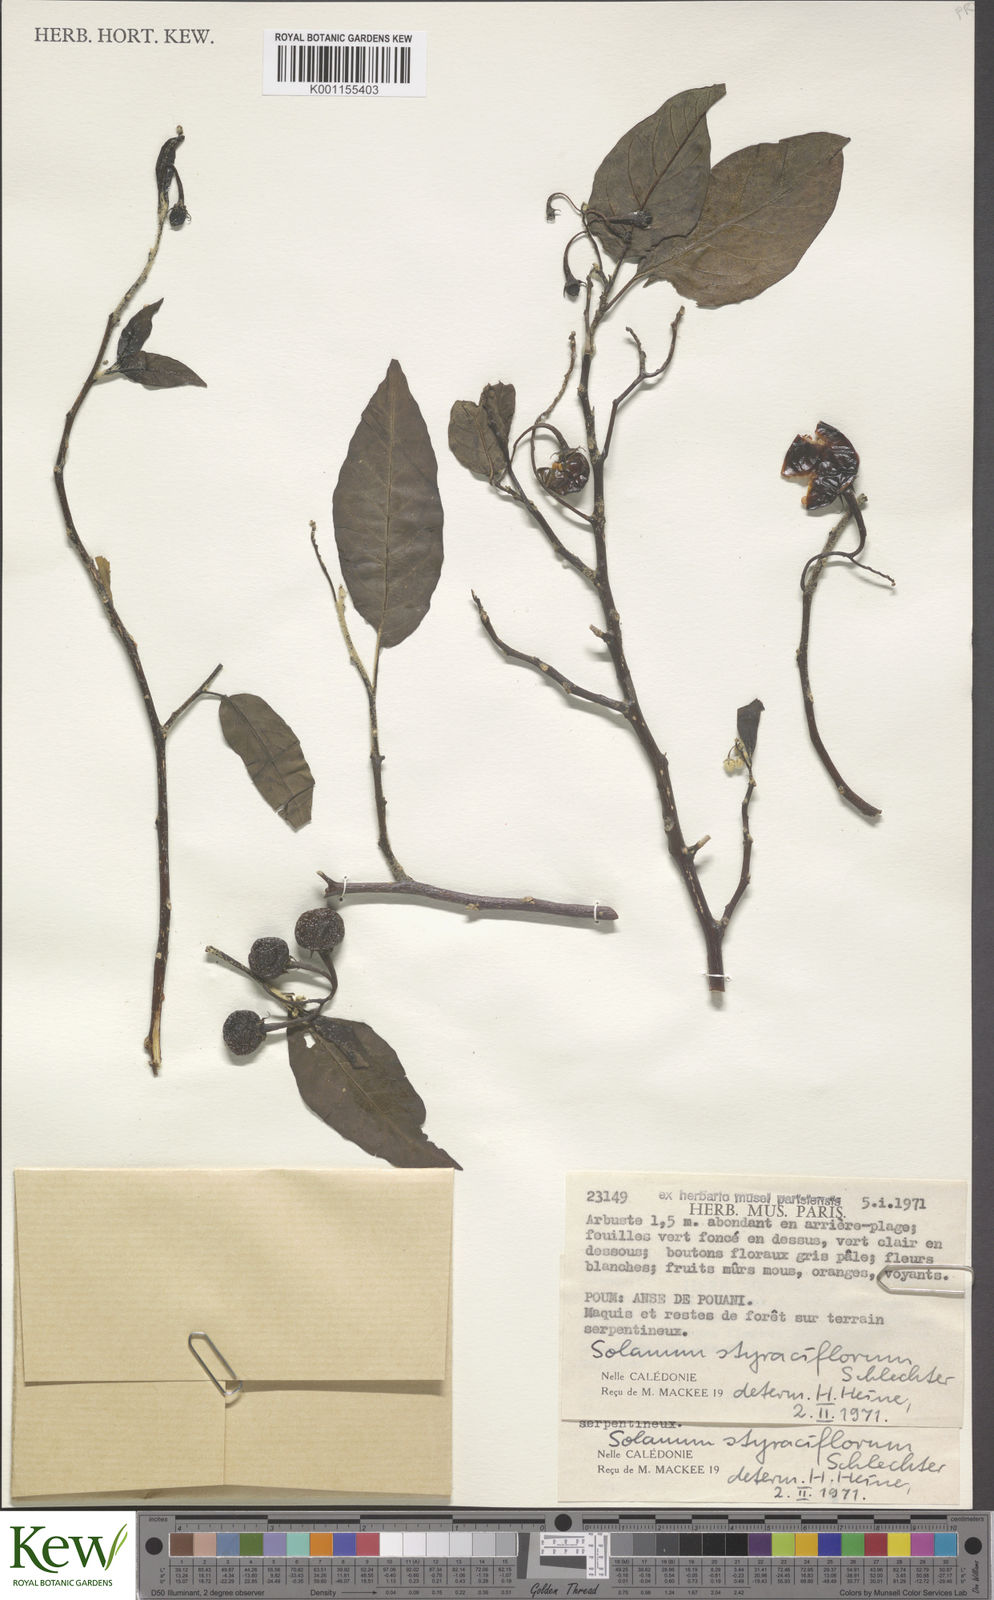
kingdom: Plantae
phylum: Tracheophyta
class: Magnoliopsida
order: Solanales
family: Solanaceae
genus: Solanum
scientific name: Solanum artense
